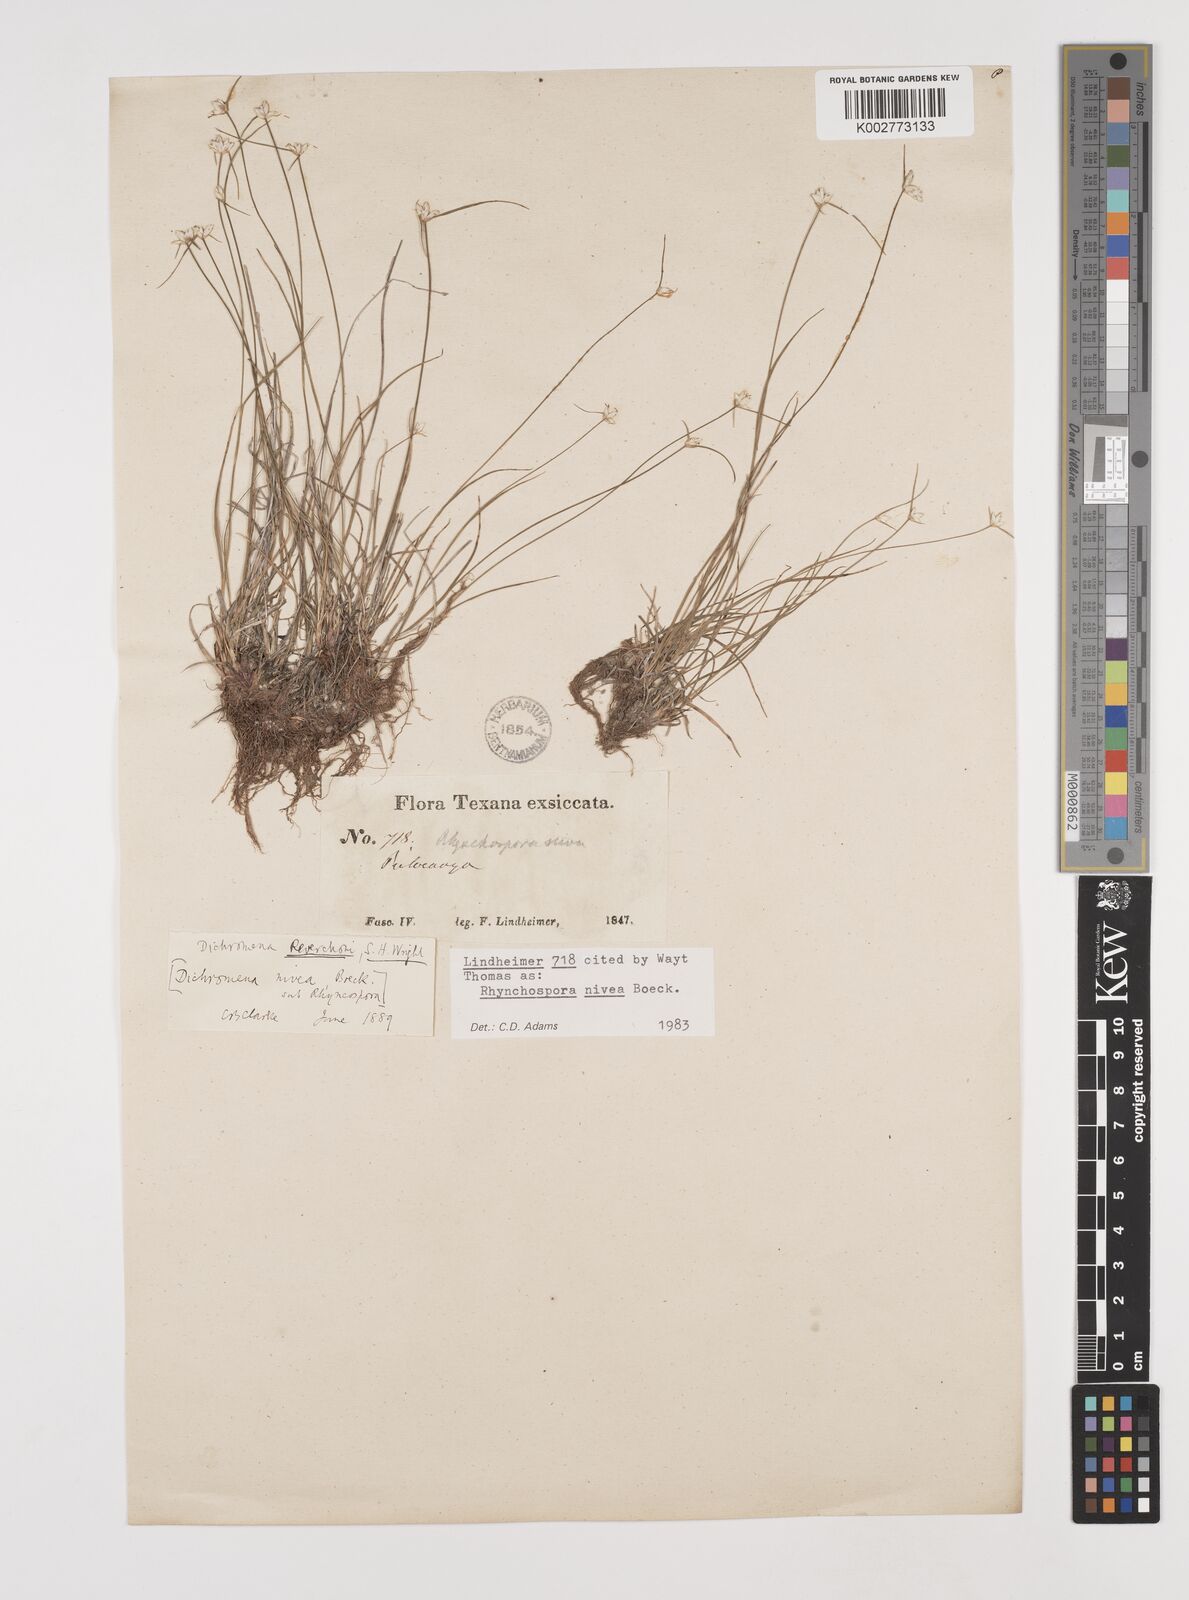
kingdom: Plantae
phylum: Tracheophyta
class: Liliopsida
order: Poales
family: Cyperaceae
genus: Rhynchospora
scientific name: Rhynchospora nivea
